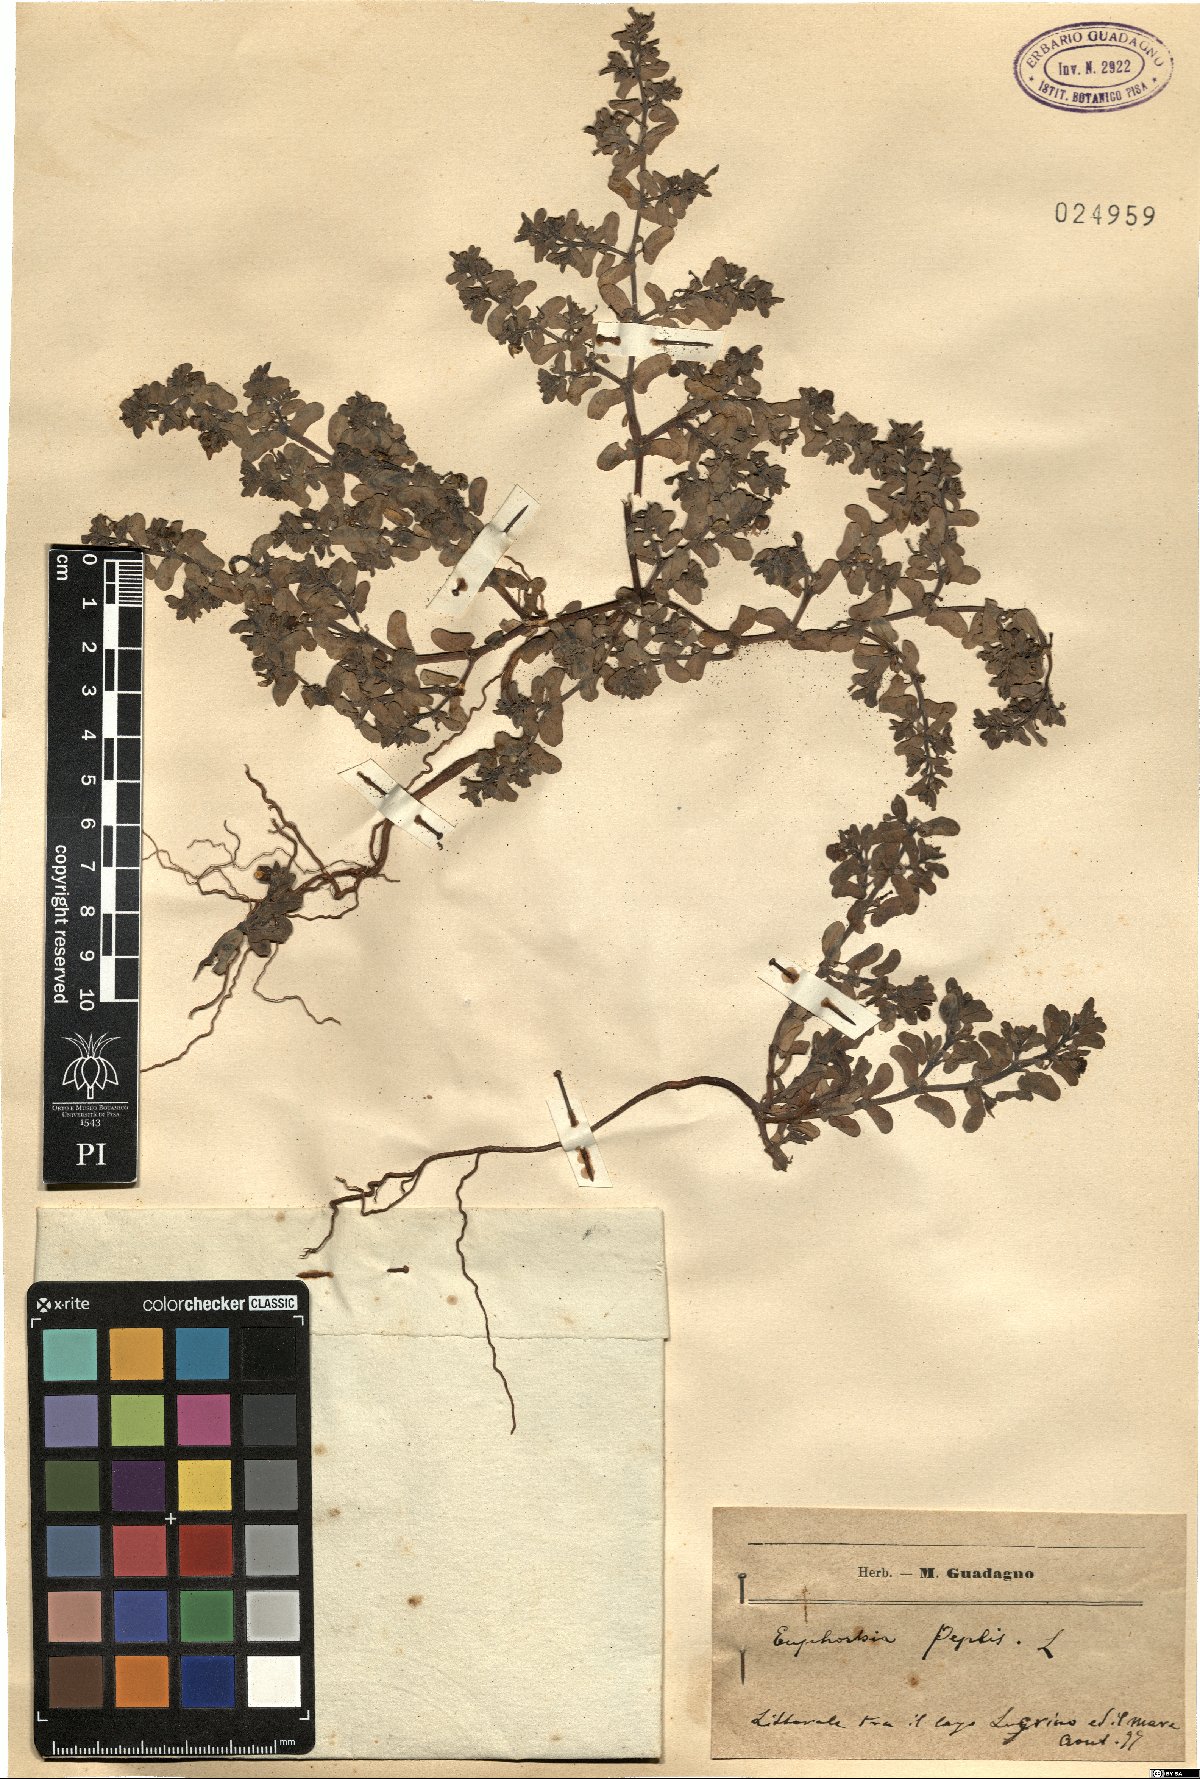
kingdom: Plantae
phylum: Tracheophyta
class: Magnoliopsida
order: Malpighiales
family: Euphorbiaceae
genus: Euphorbia
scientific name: Euphorbia peplis
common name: Purple spurge
